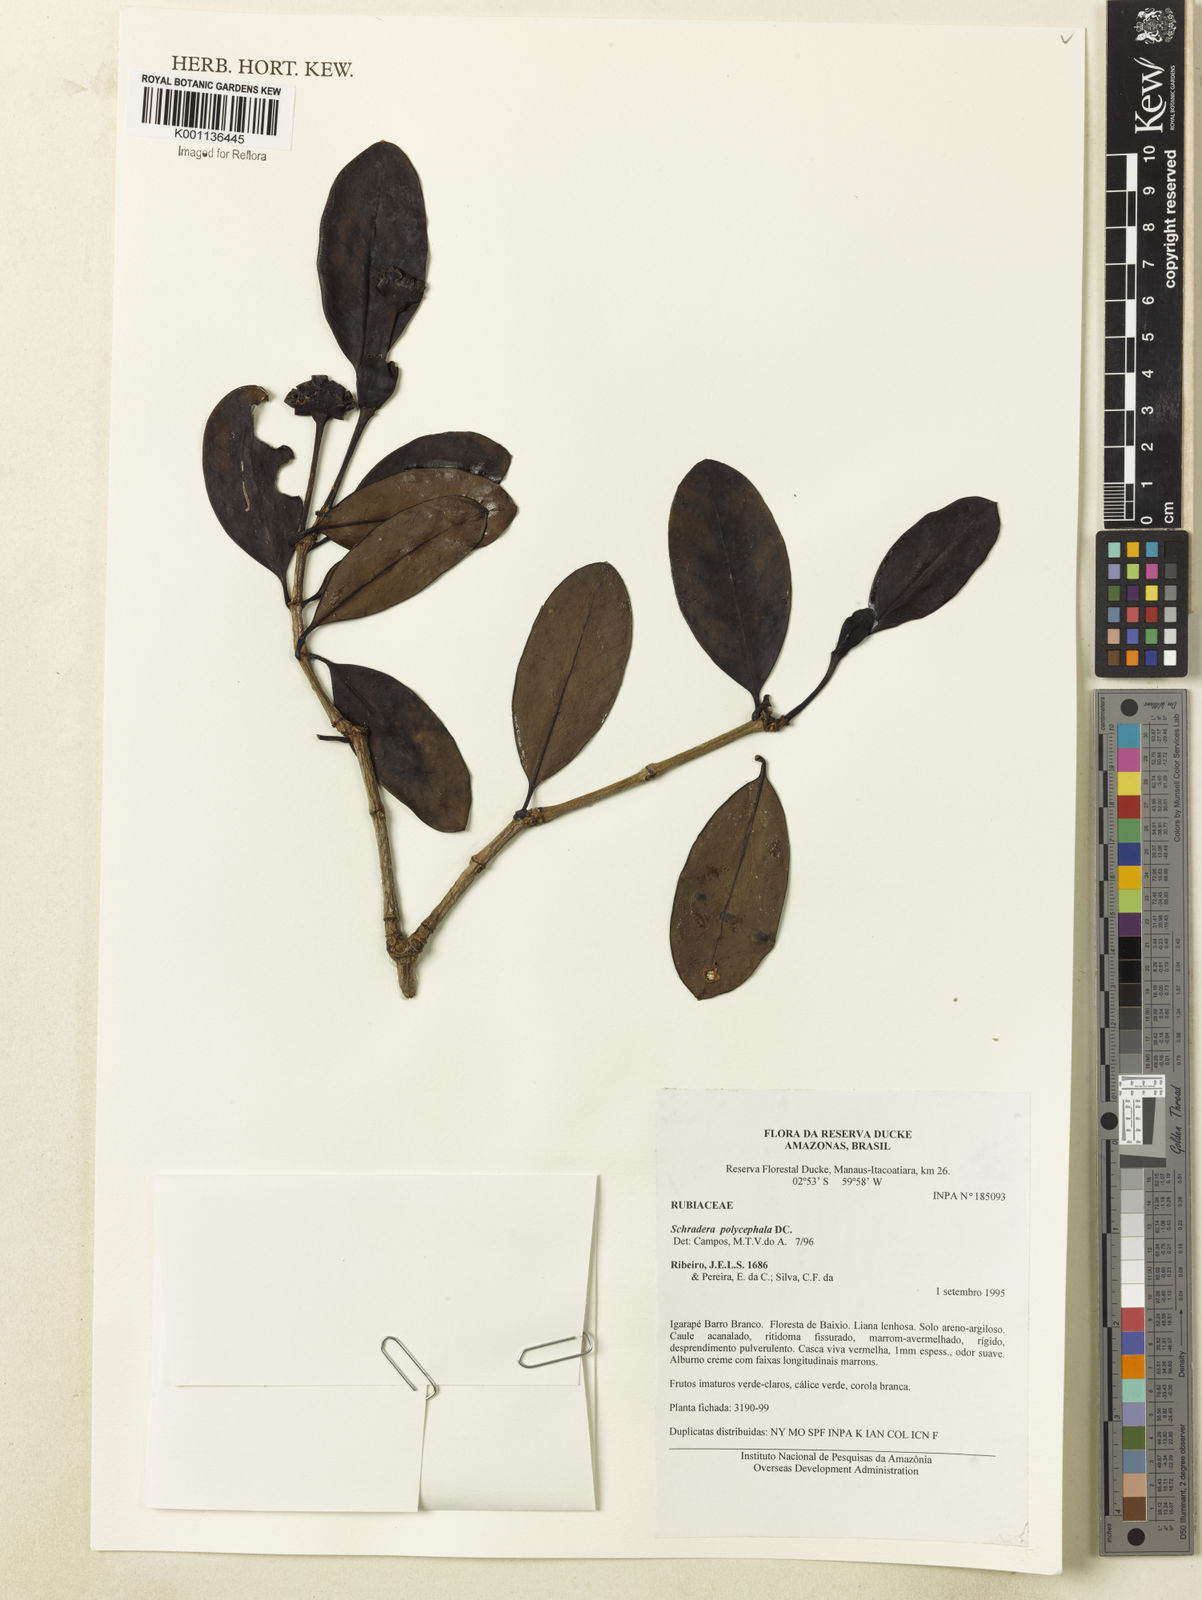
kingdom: Plantae
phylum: Tracheophyta
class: Magnoliopsida
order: Gentianales
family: Rubiaceae
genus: Schradera
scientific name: Schradera polycephala
